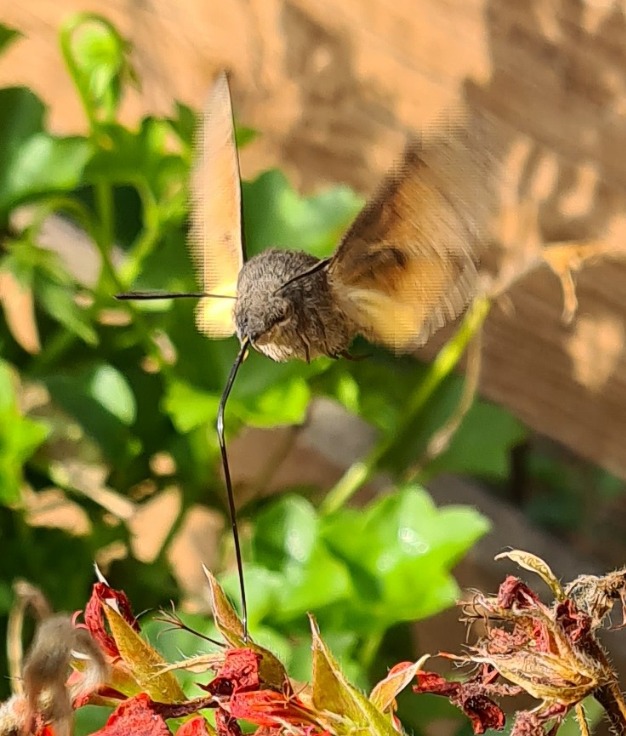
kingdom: Animalia
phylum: Arthropoda
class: Insecta
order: Lepidoptera
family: Sphingidae
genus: Macroglossum
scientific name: Macroglossum stellatarum
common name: Duehale
